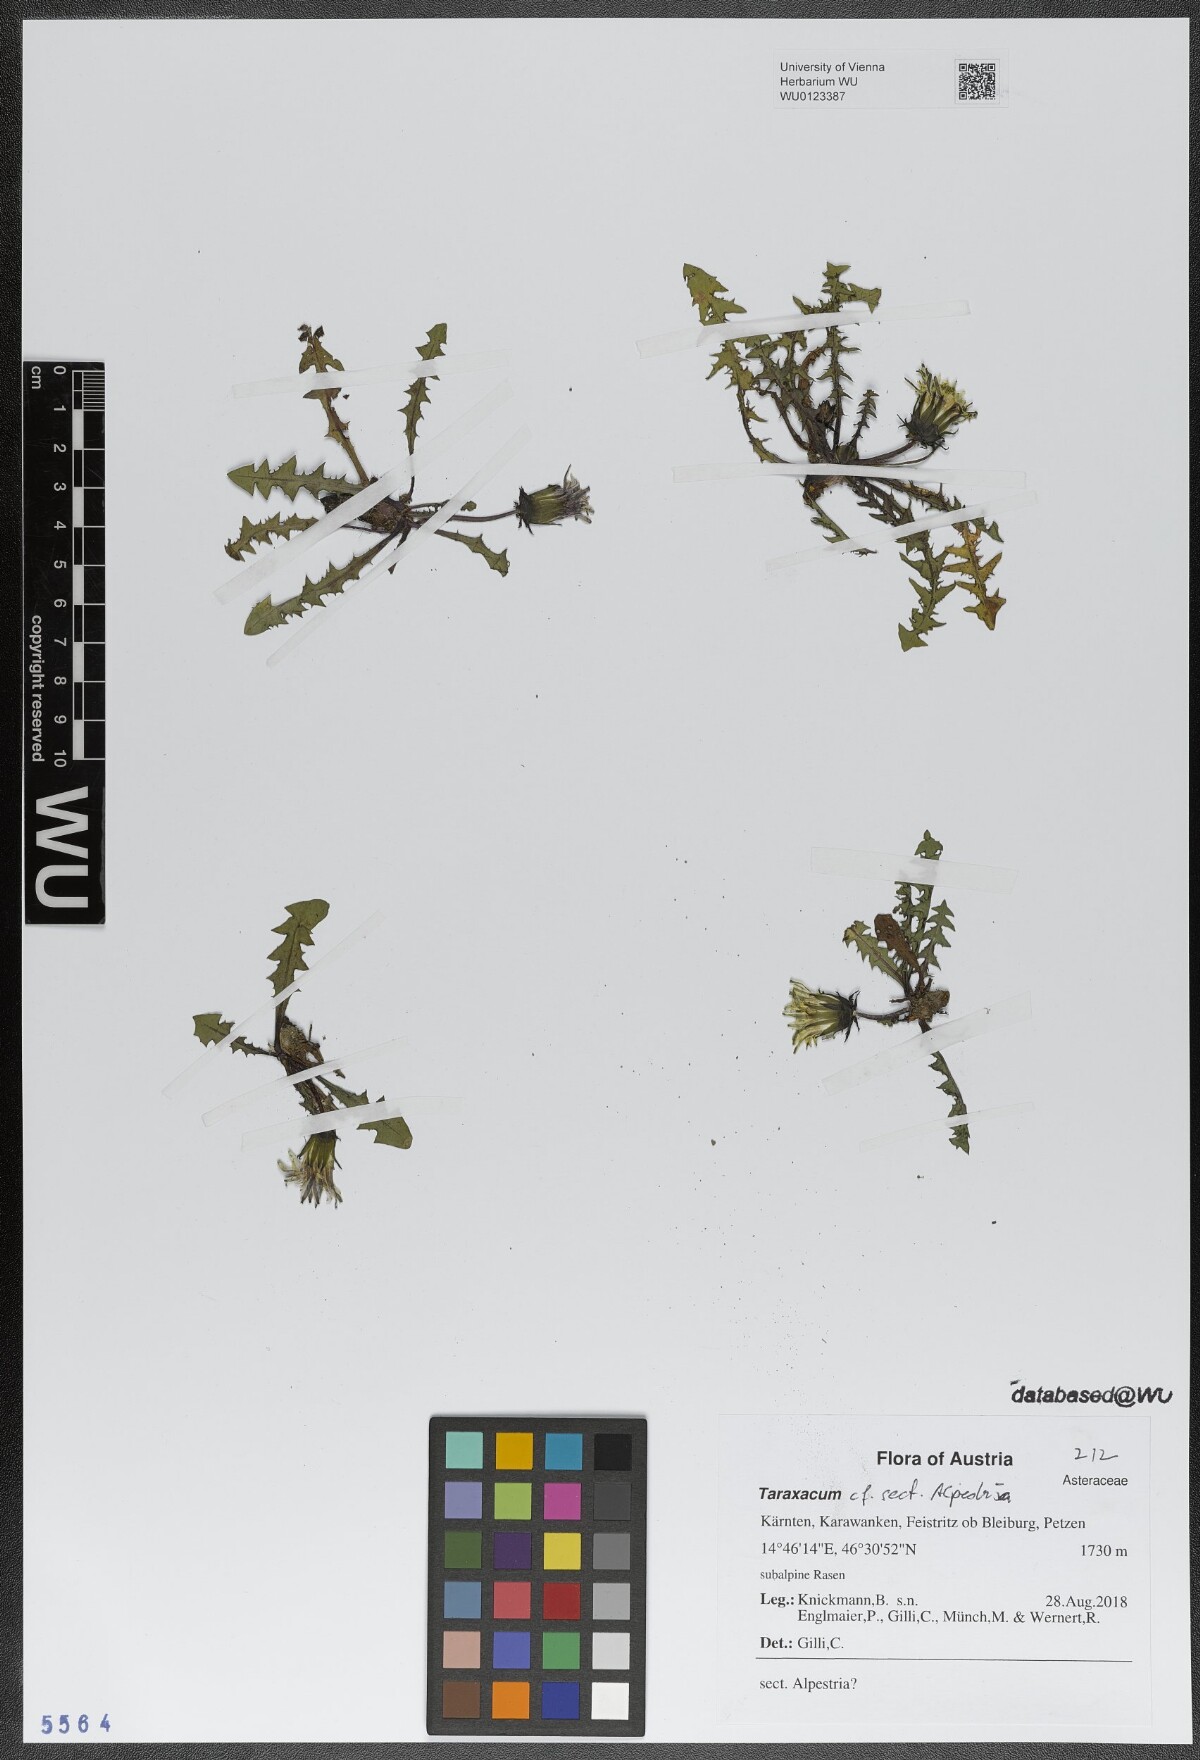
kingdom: Plantae
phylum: Tracheophyta
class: Magnoliopsida
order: Asterales
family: Asteraceae
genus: Taraxacum
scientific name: Taraxacum
